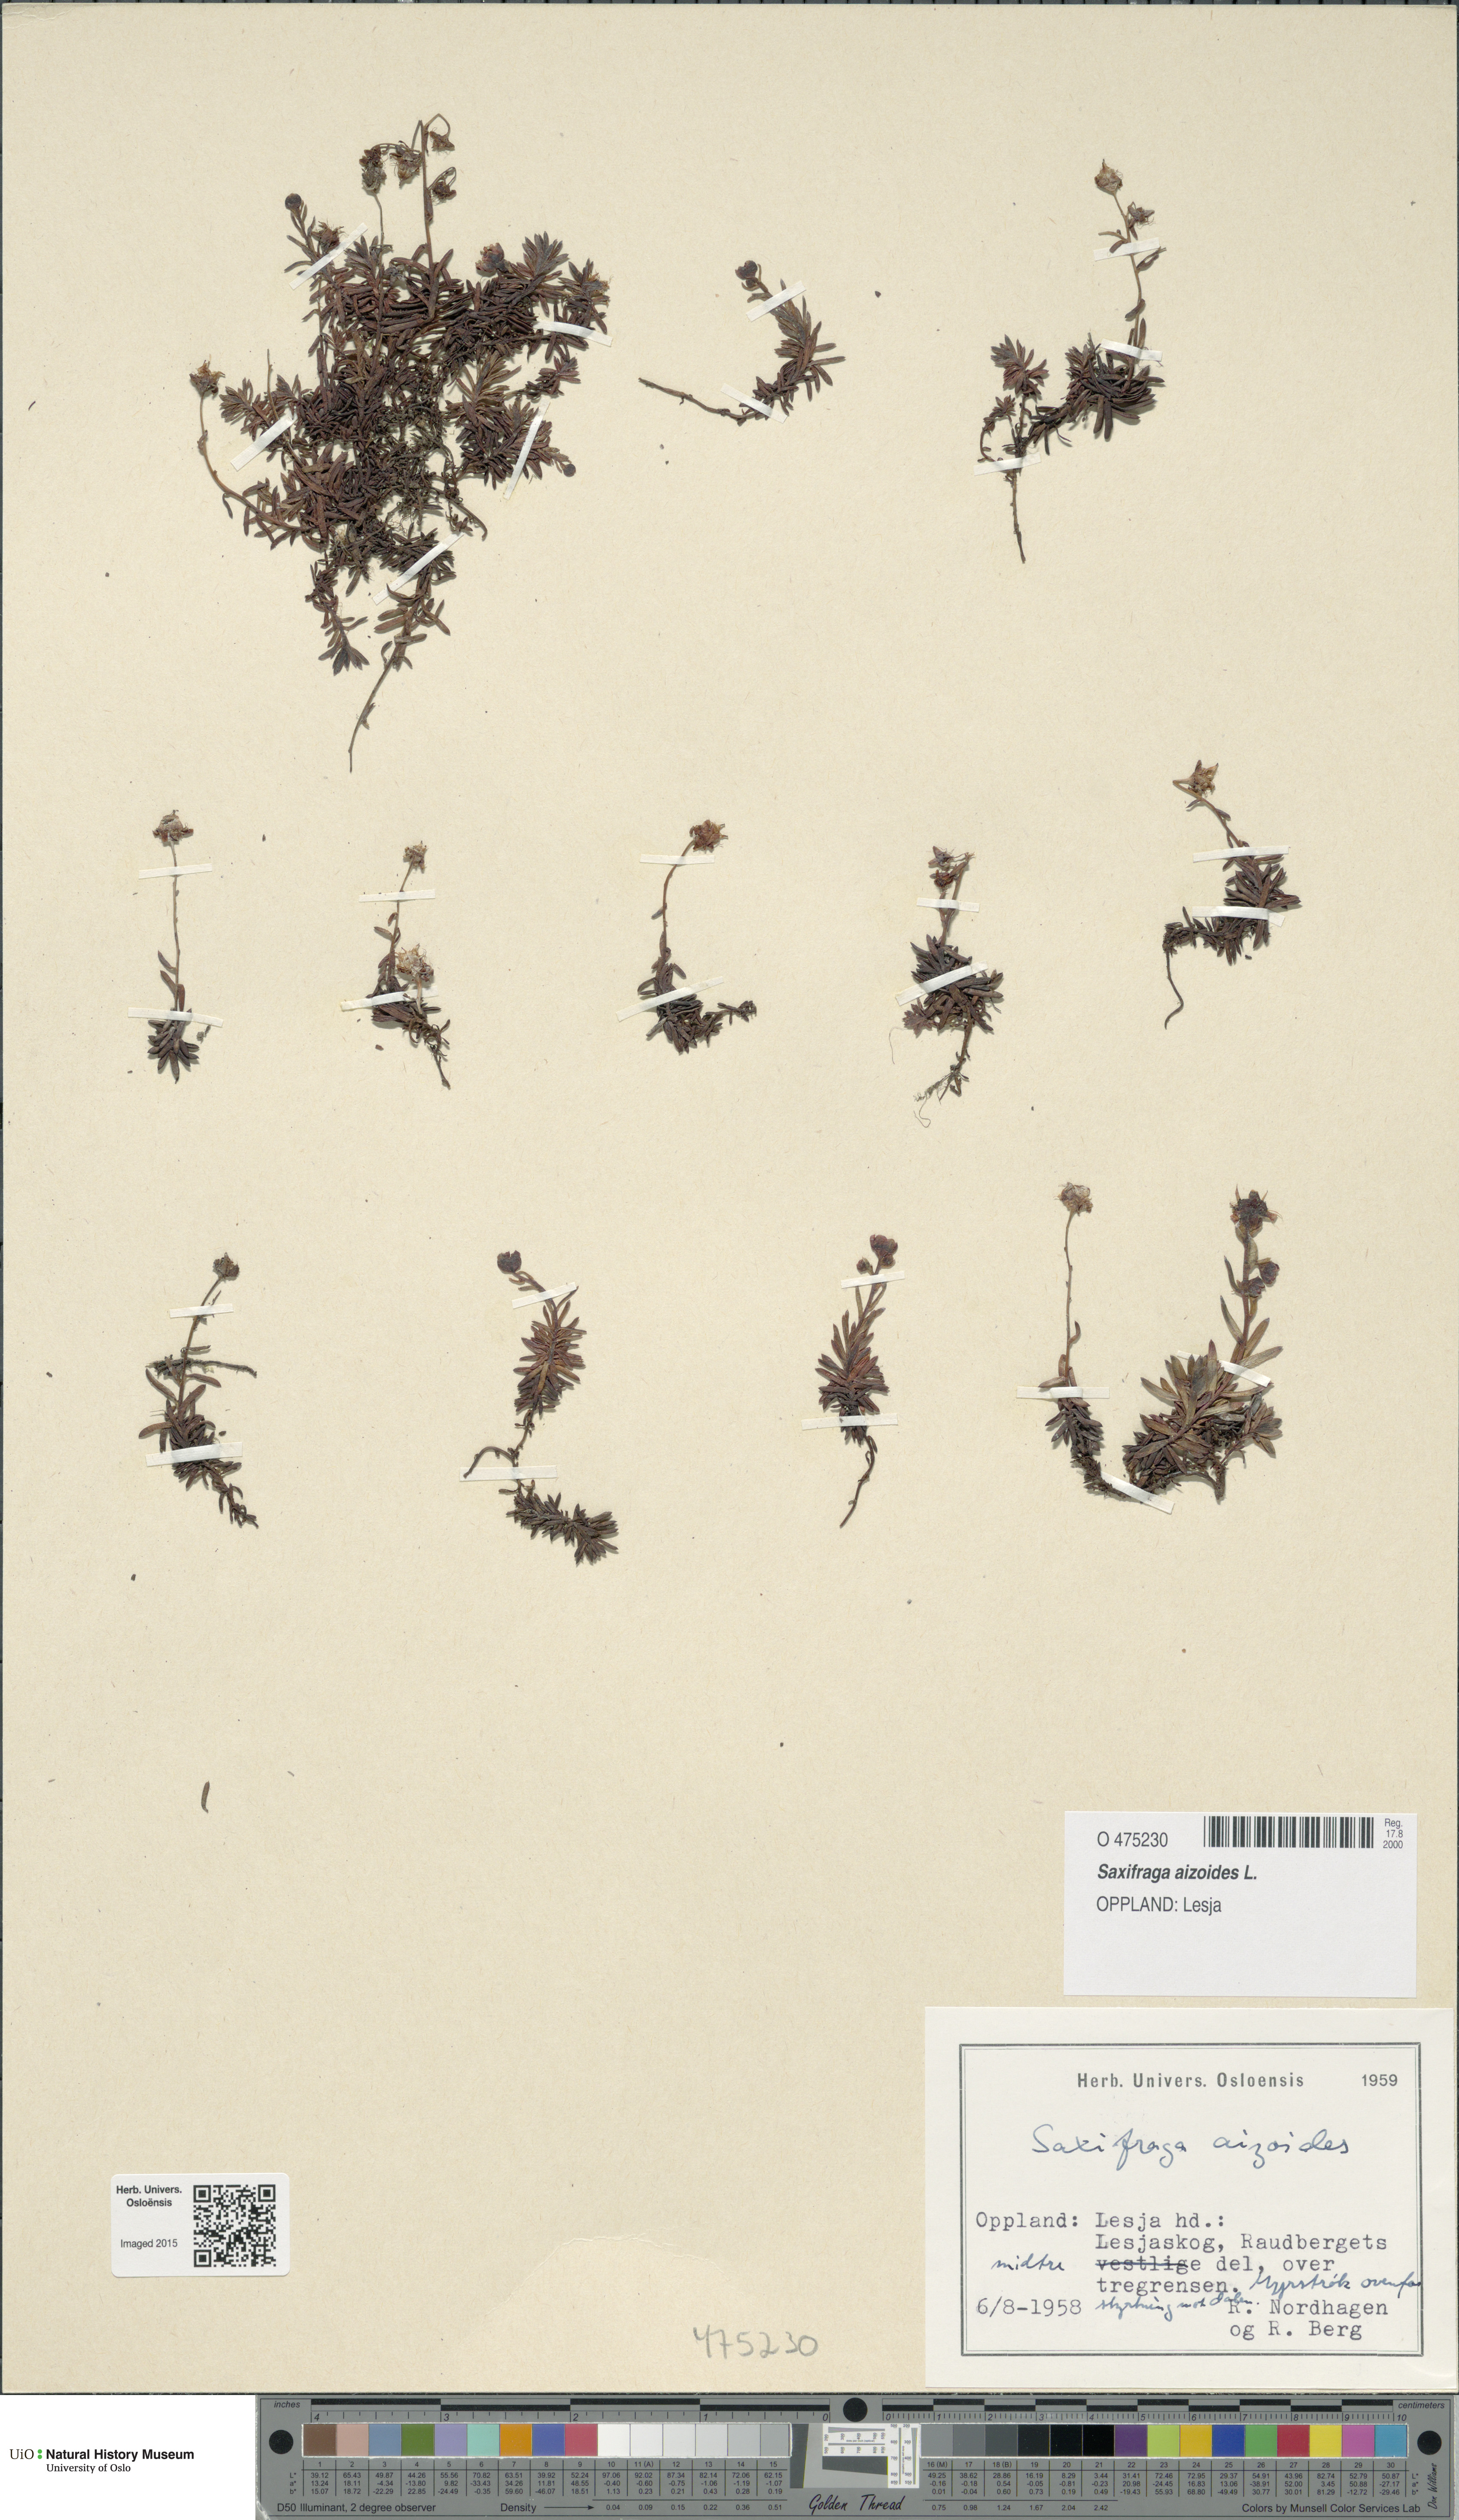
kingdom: Plantae
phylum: Tracheophyta
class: Magnoliopsida
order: Saxifragales
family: Saxifragaceae
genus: Saxifraga
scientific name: Saxifraga aizoides
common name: Yellow mountain saxifrage
